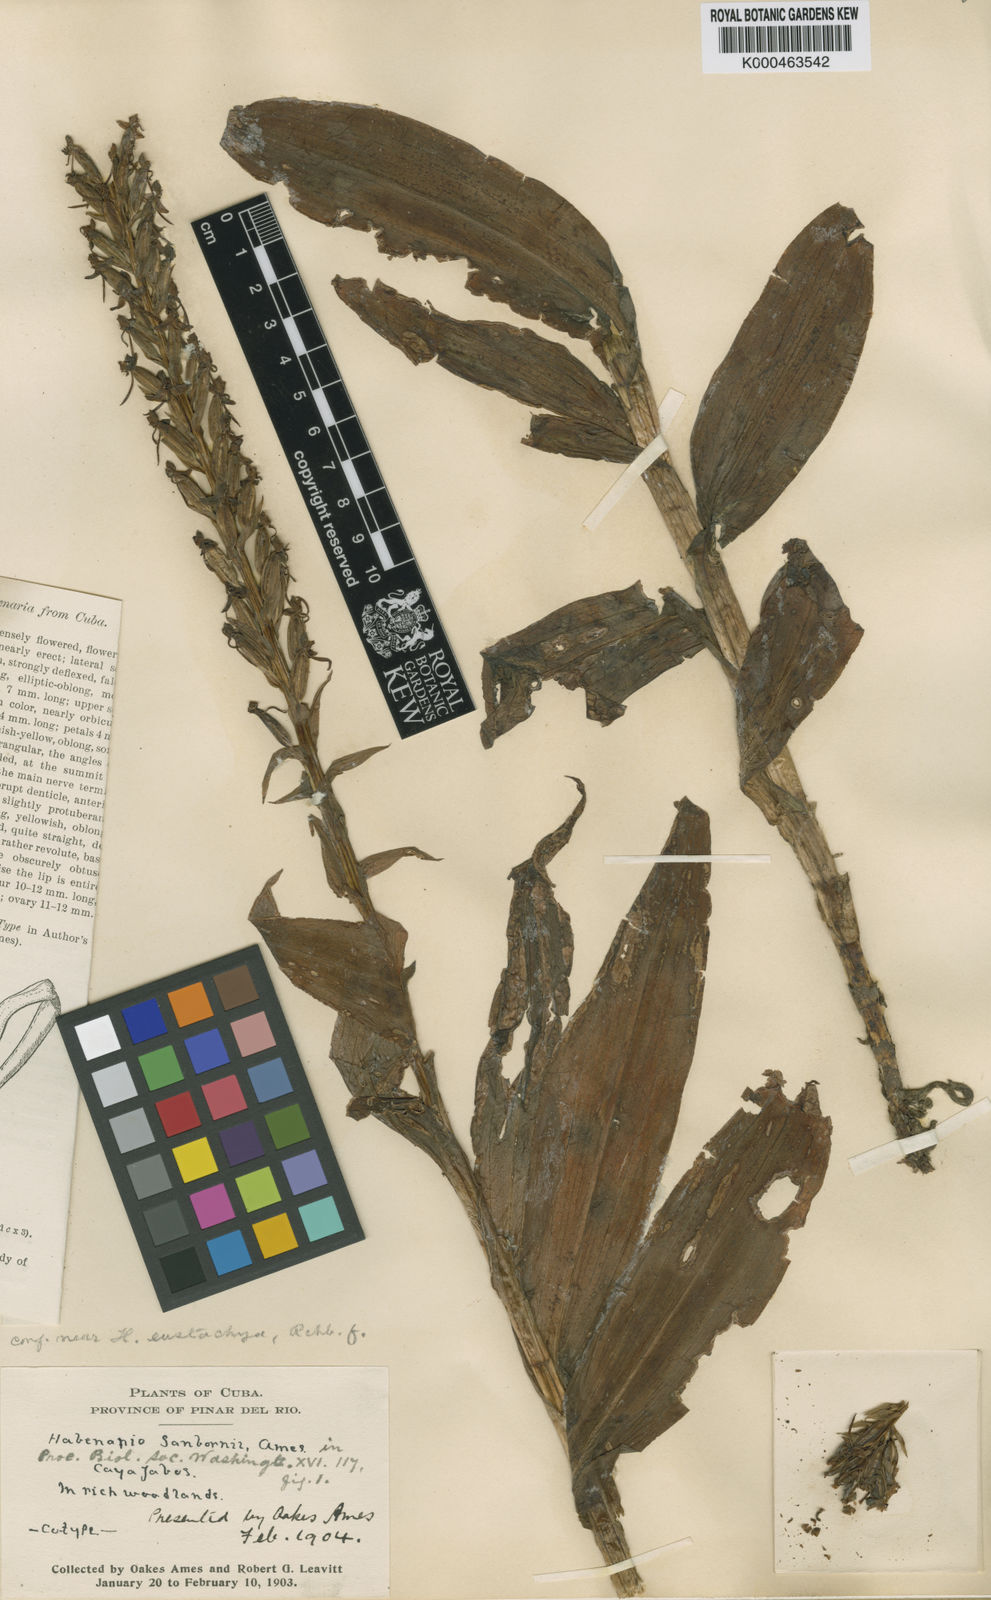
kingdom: Plantae
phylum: Tracheophyta
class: Liliopsida
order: Asparagales
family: Orchidaceae
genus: Habenaria
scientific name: Habenaria eustachya
